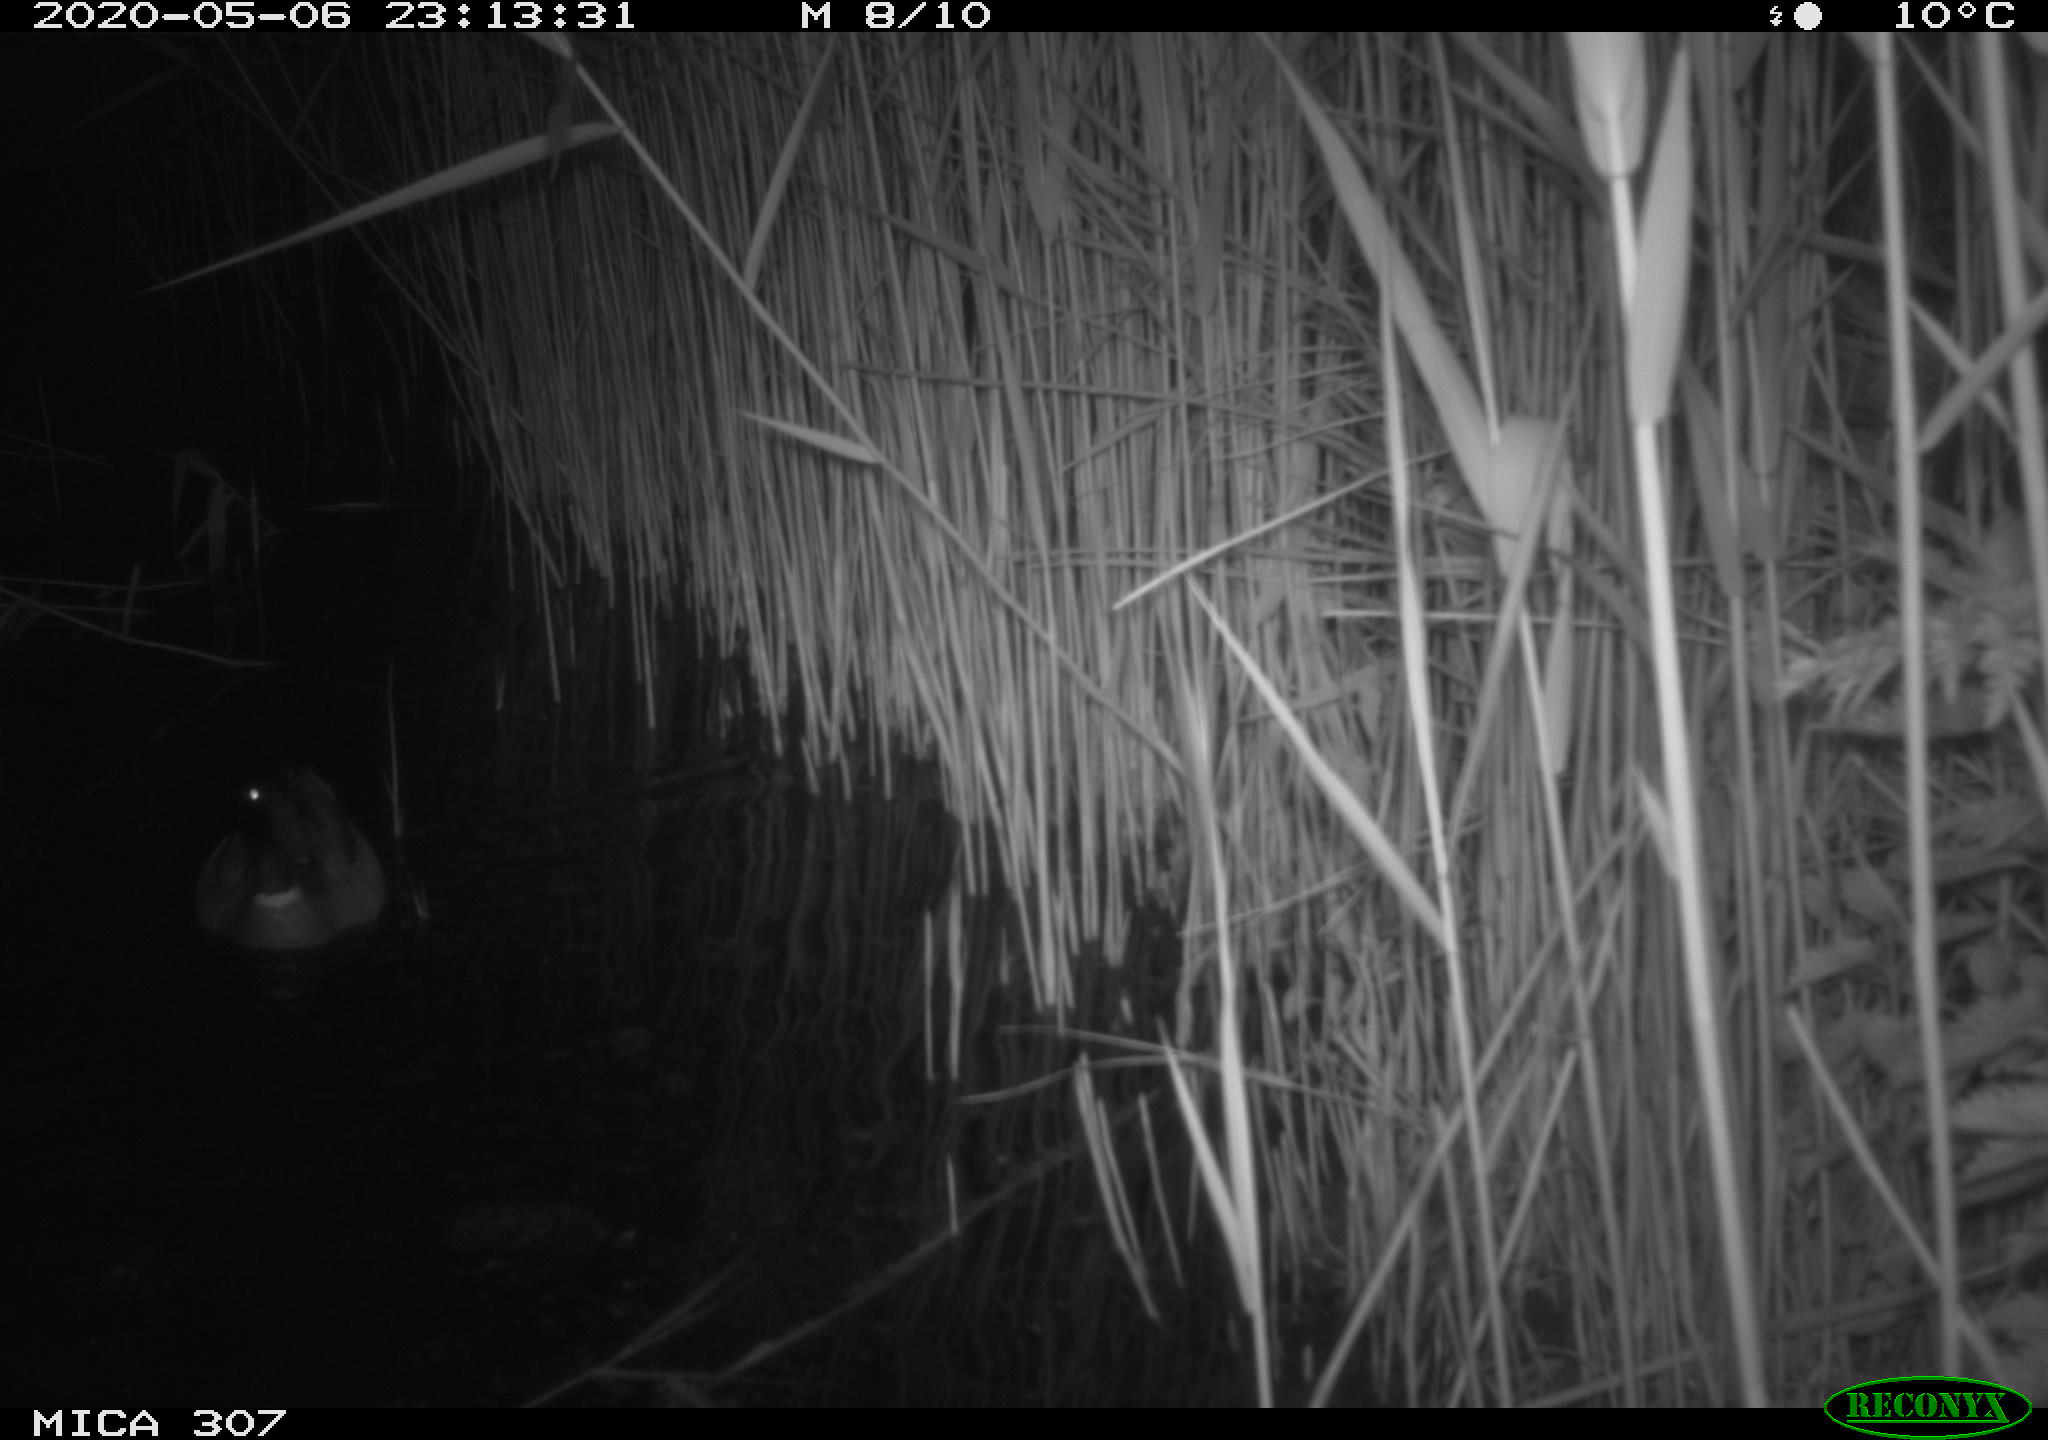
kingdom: Animalia
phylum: Chordata
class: Aves
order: Anseriformes
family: Anatidae
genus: Anas
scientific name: Anas platyrhynchos
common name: Mallard
